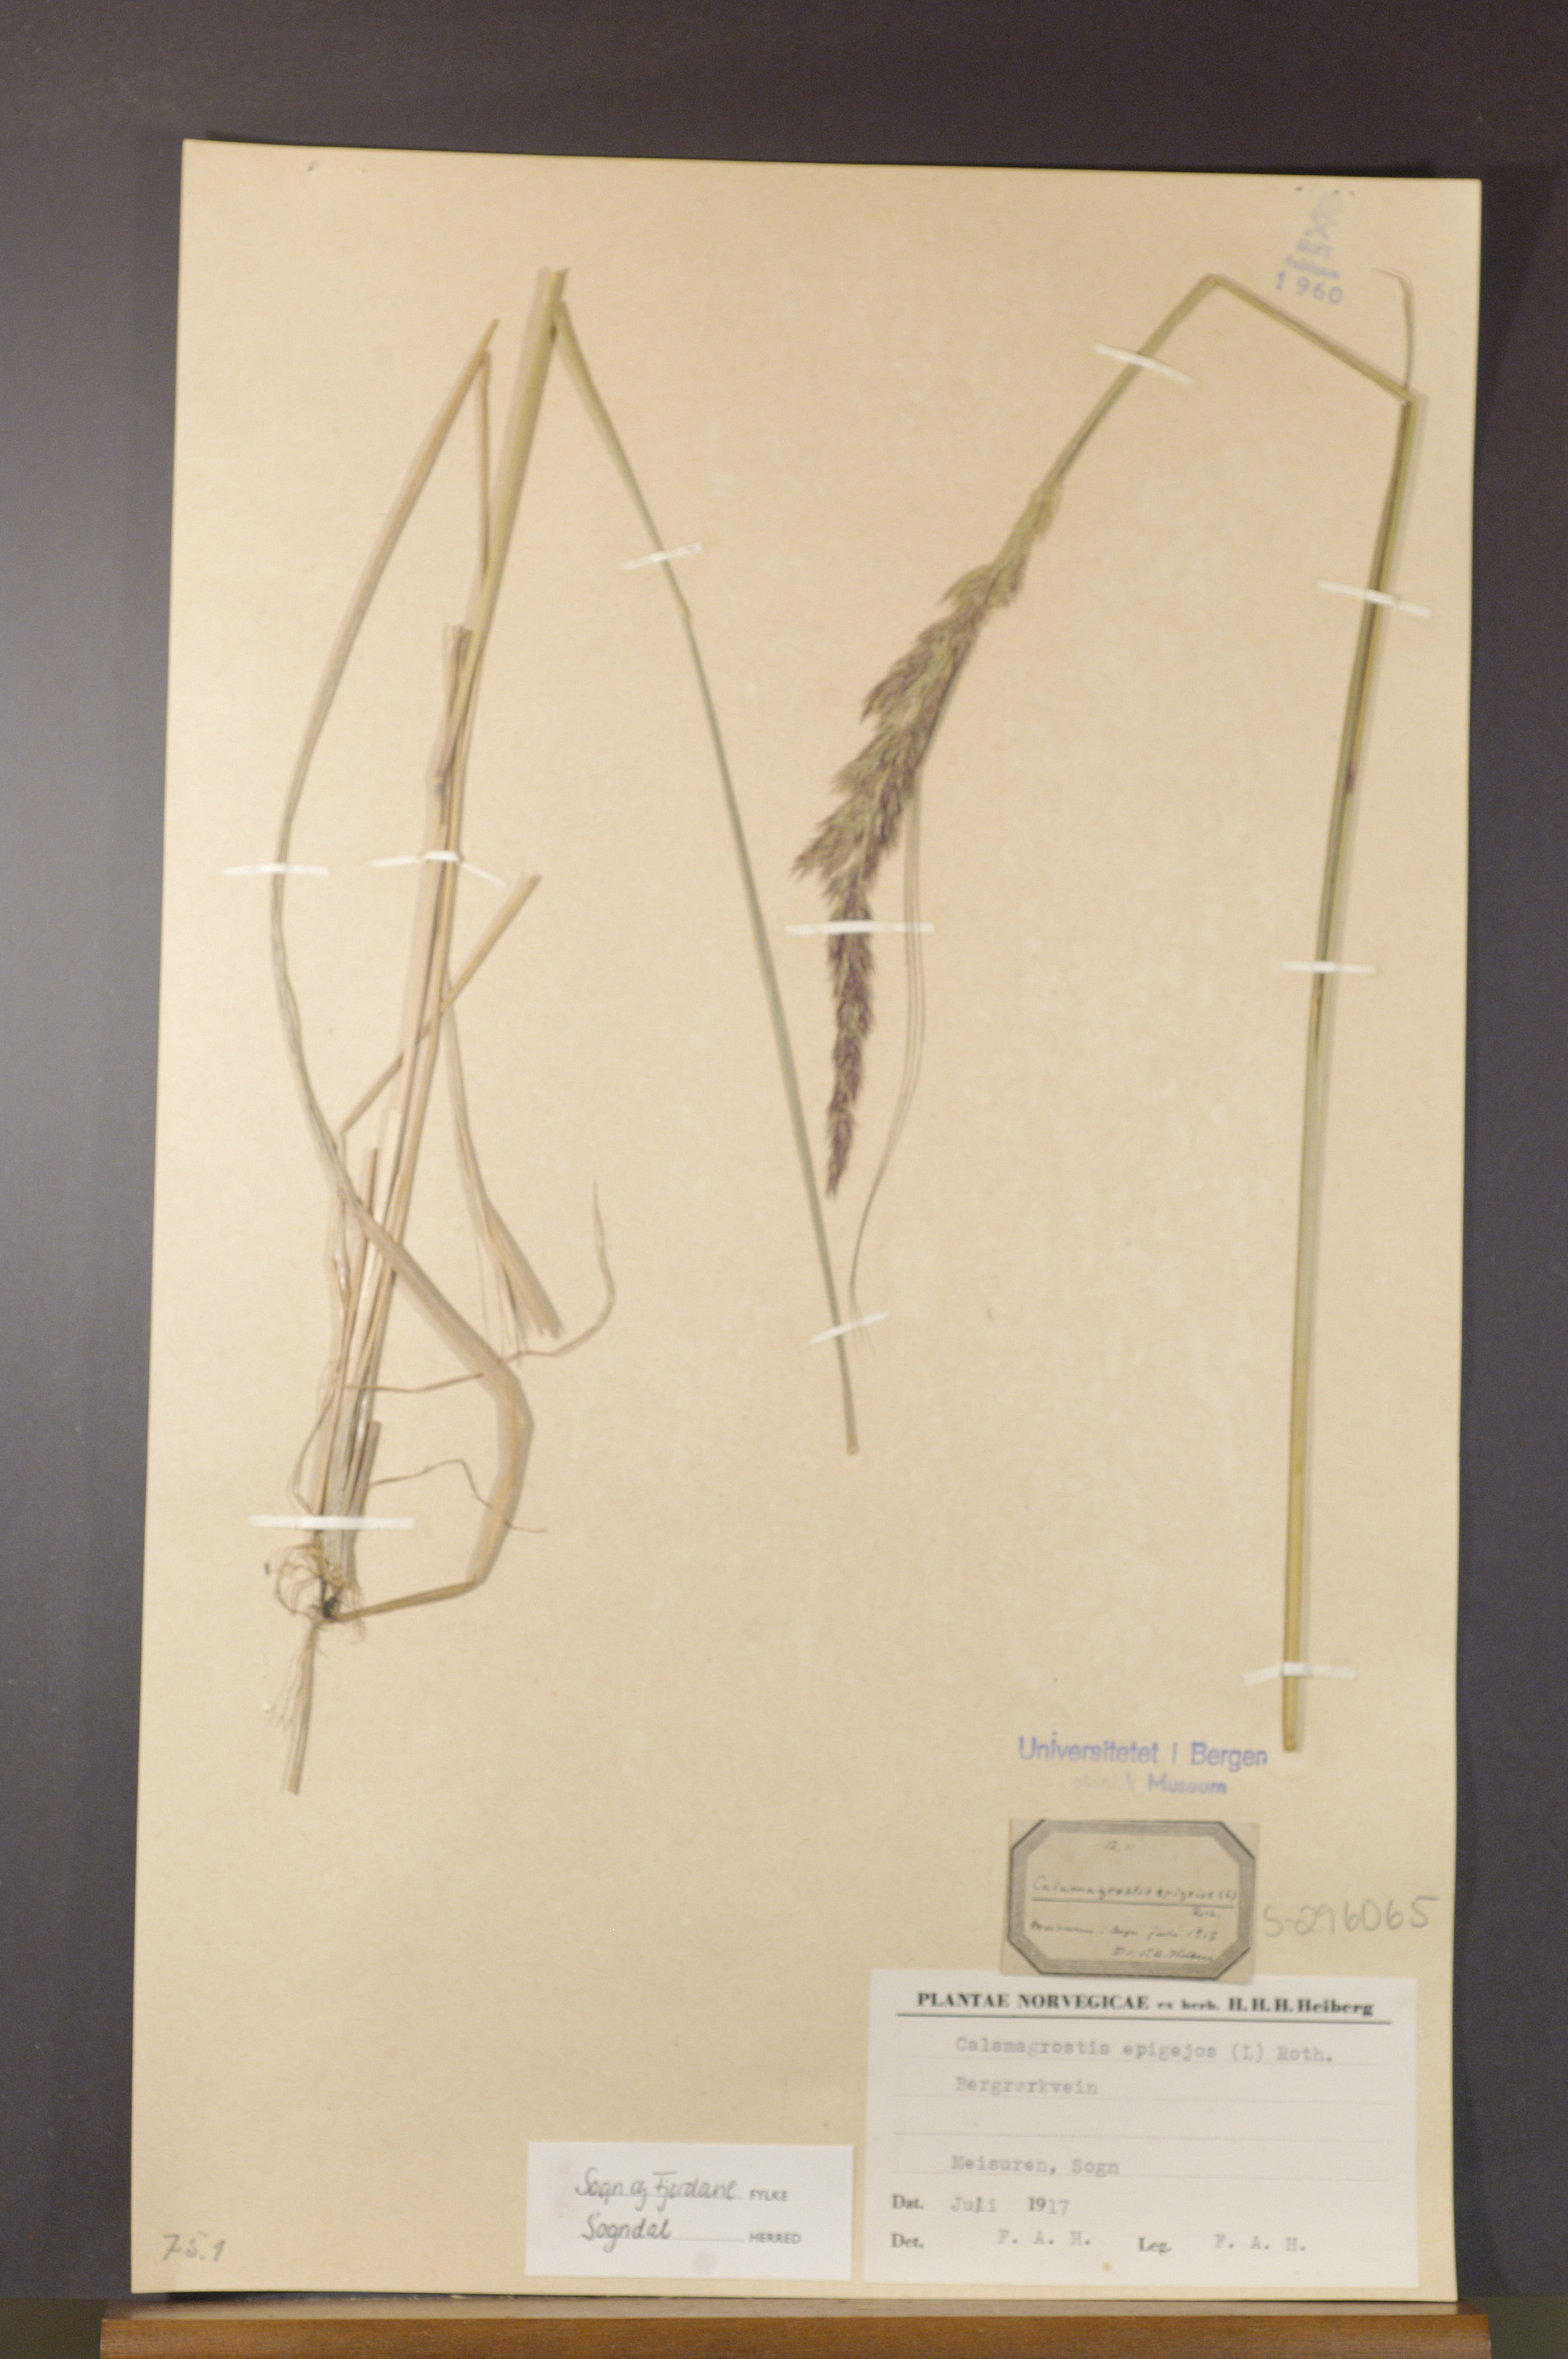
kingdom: Plantae
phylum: Tracheophyta
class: Liliopsida
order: Poales
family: Poaceae
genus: Calamagrostis
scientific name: Calamagrostis epigejos
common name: Wood small-reed
